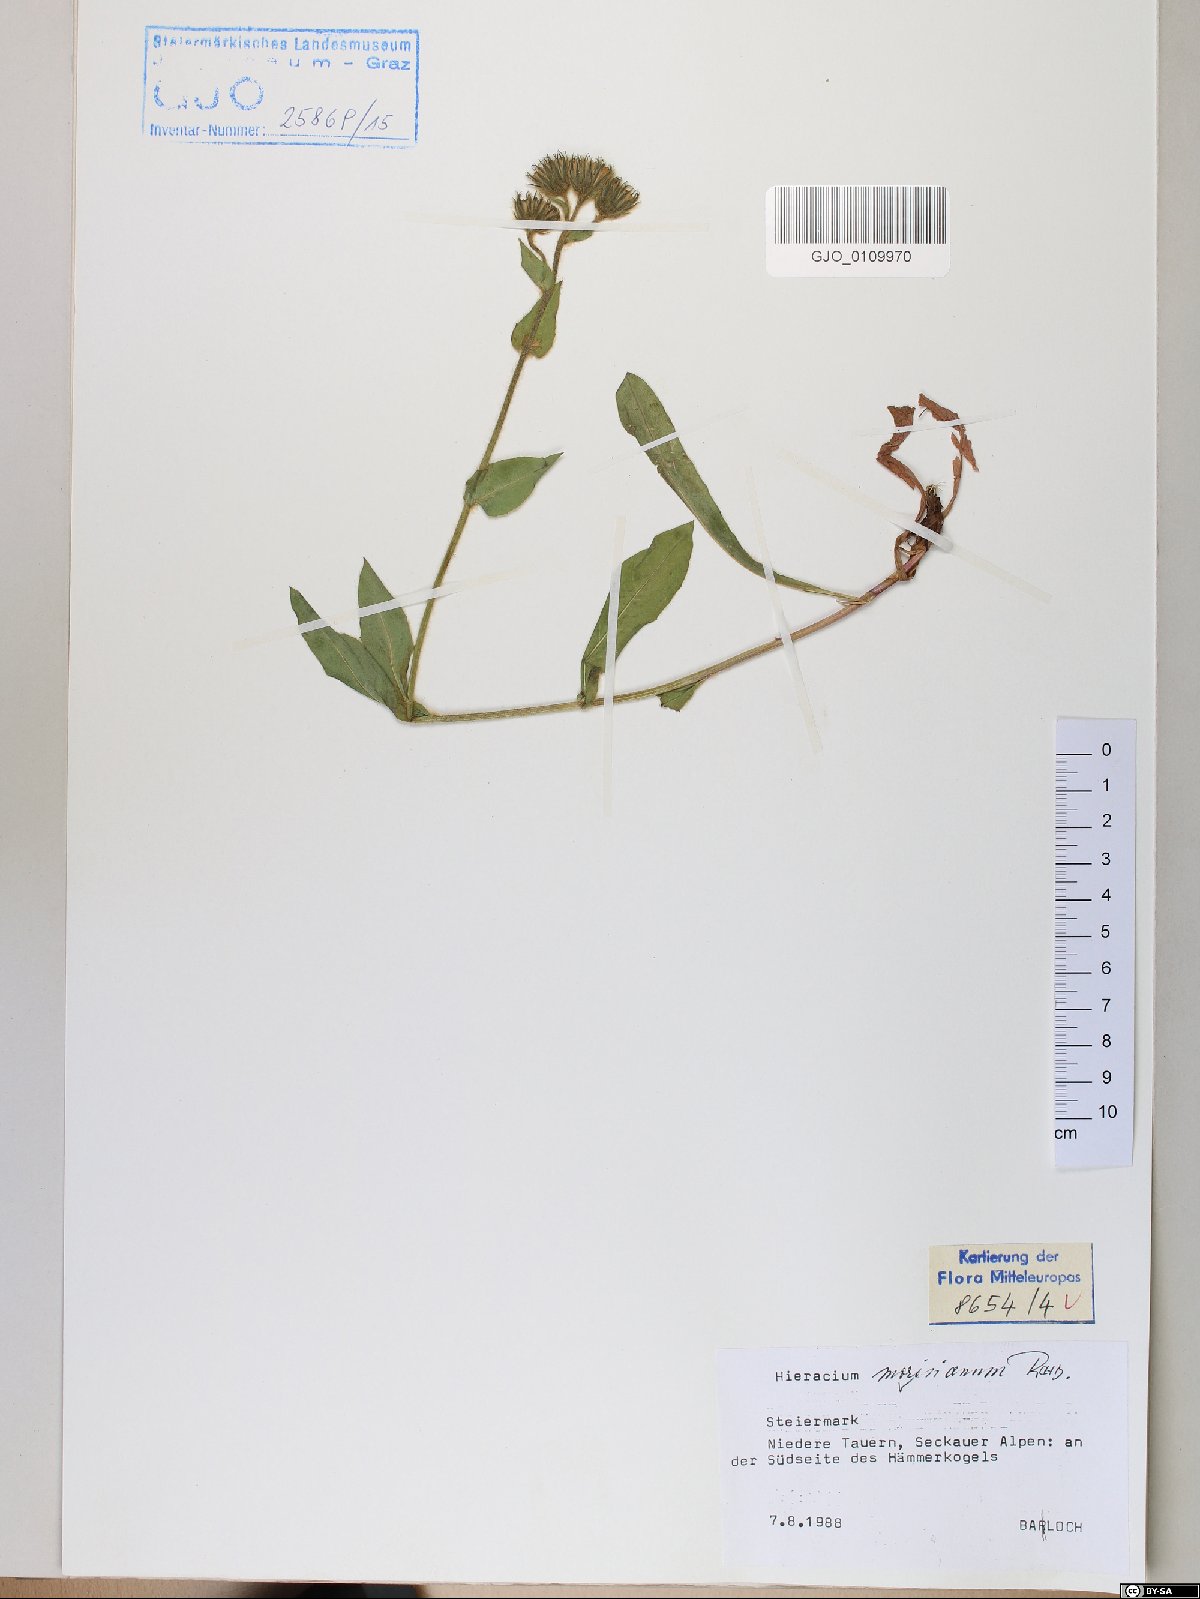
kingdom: Plantae
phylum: Tracheophyta
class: Magnoliopsida
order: Asterales
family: Asteraceae
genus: Hieracium
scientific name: Hieracium pilosum
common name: Fimbriate-pitted hawkweed
